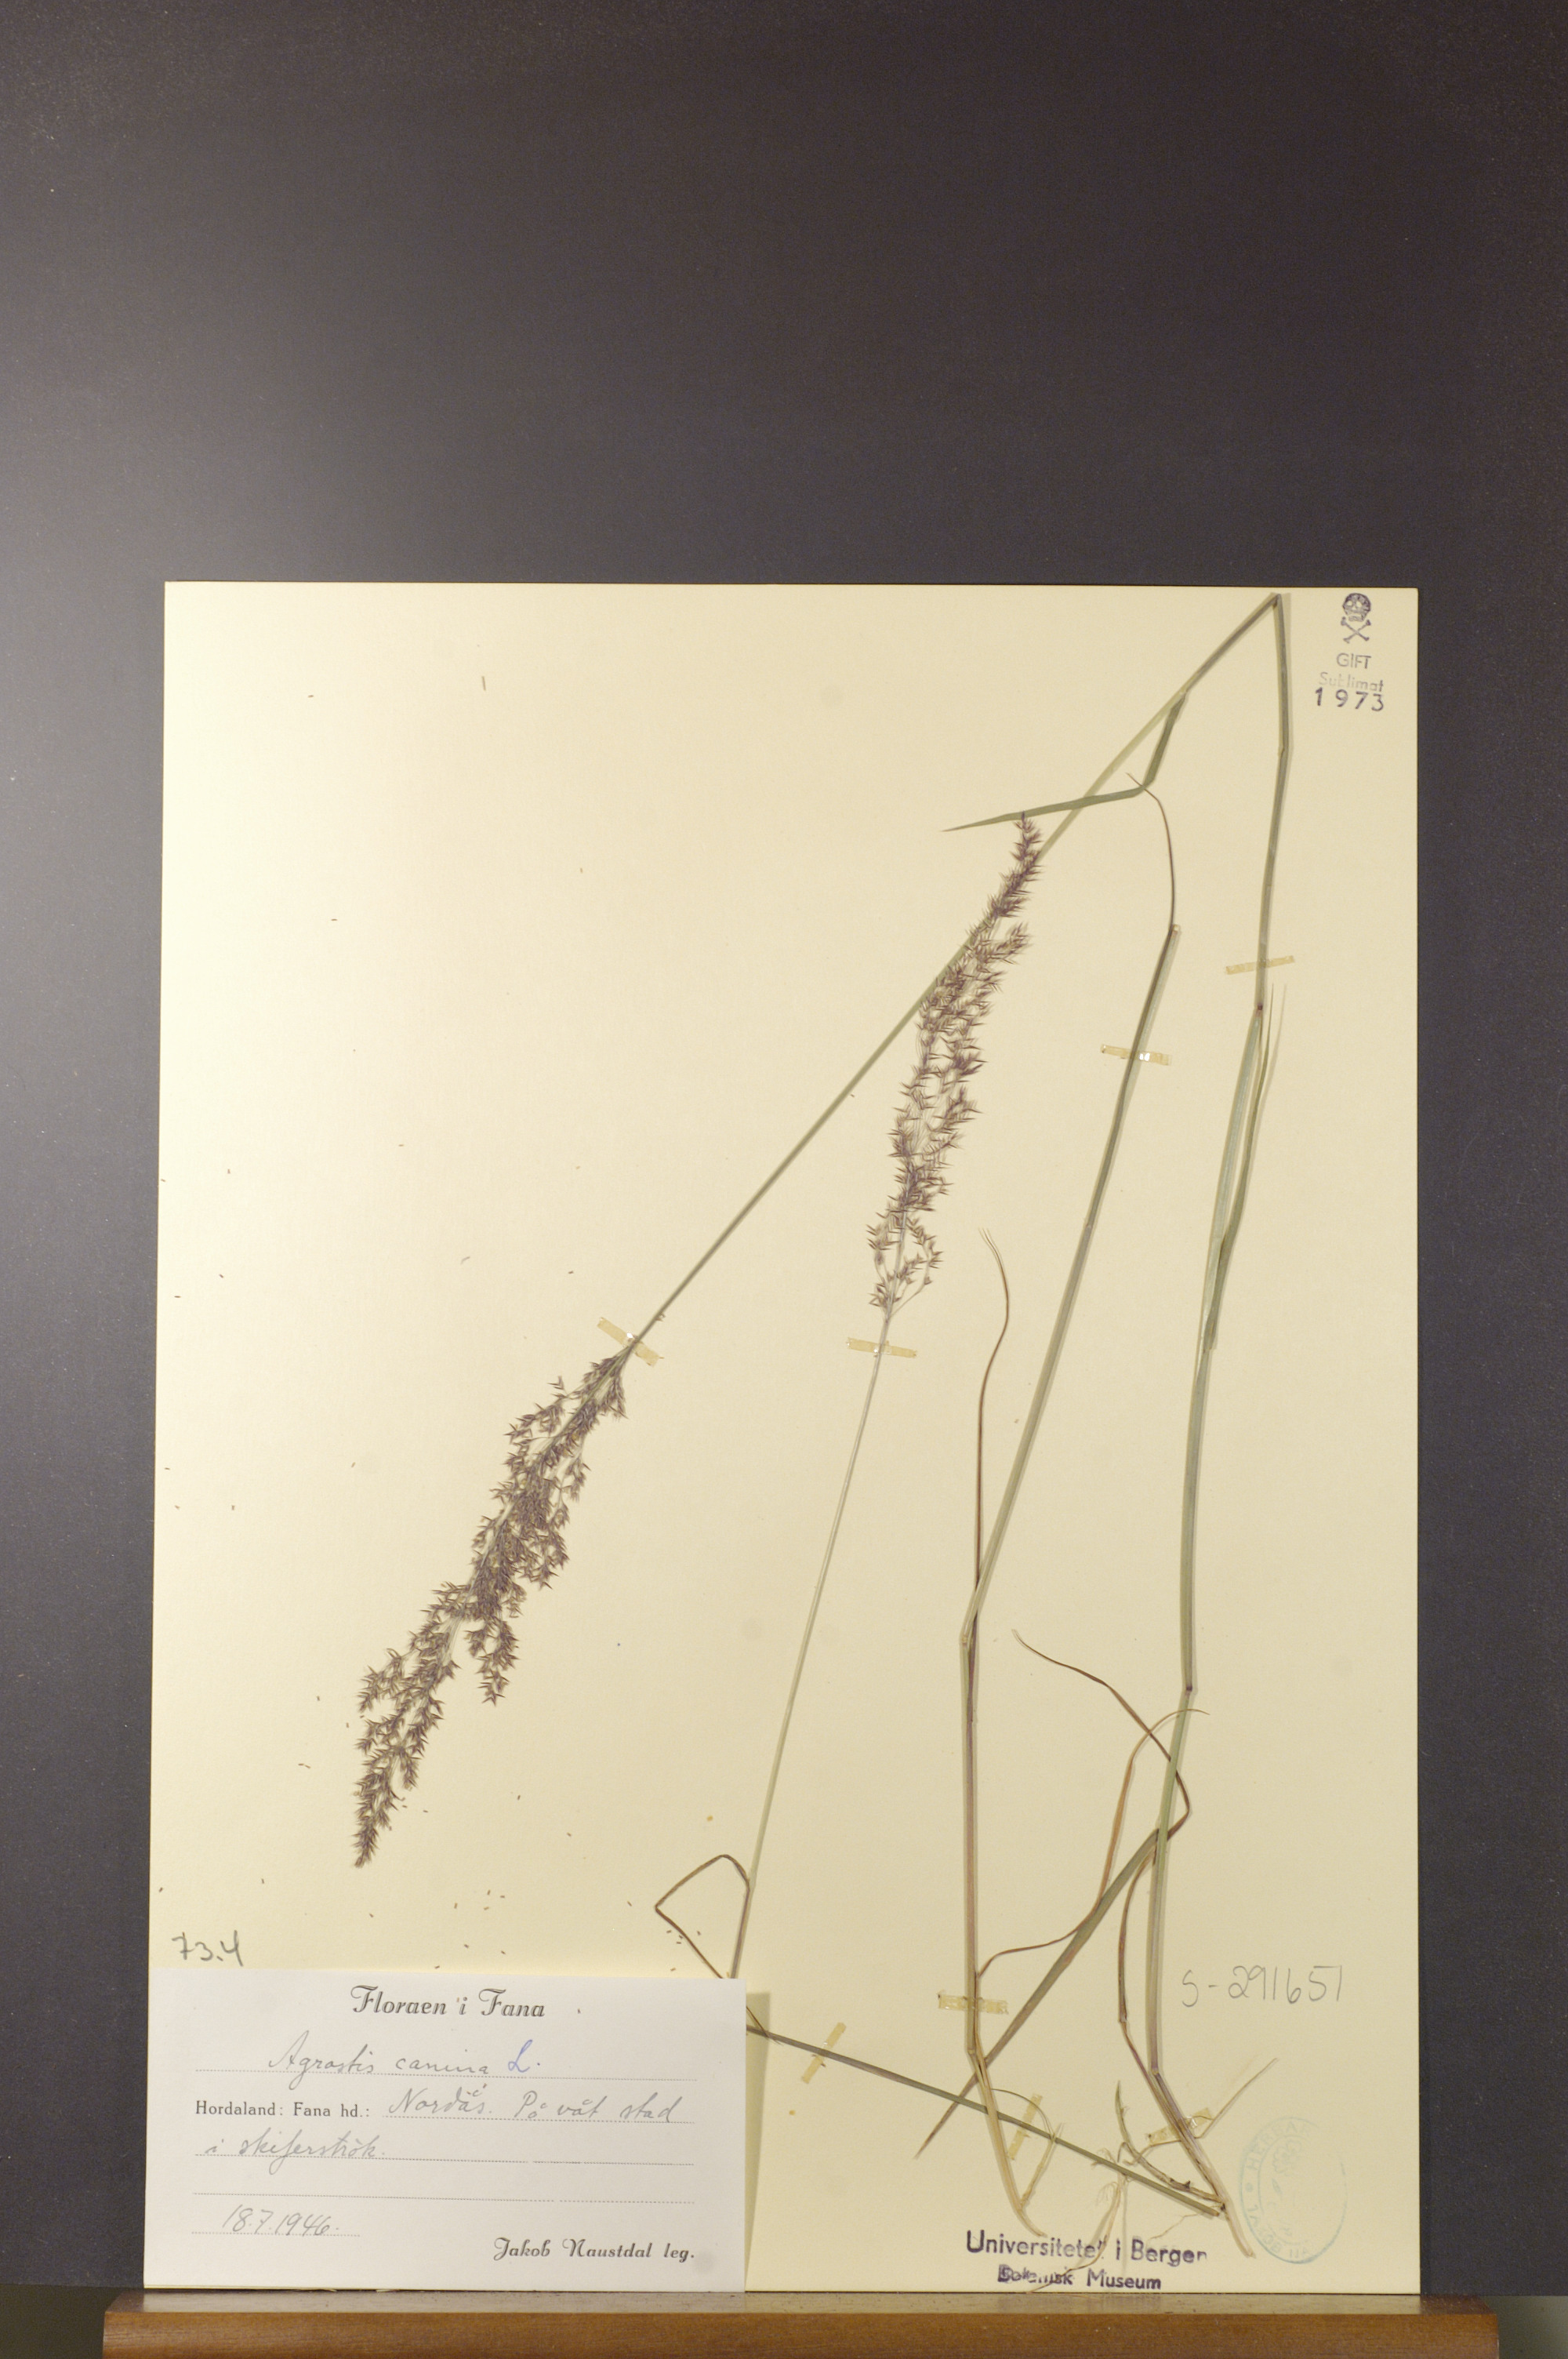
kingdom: Plantae
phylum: Tracheophyta
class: Liliopsida
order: Poales
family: Poaceae
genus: Agrostis
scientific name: Agrostis canina
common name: Velvet bent
